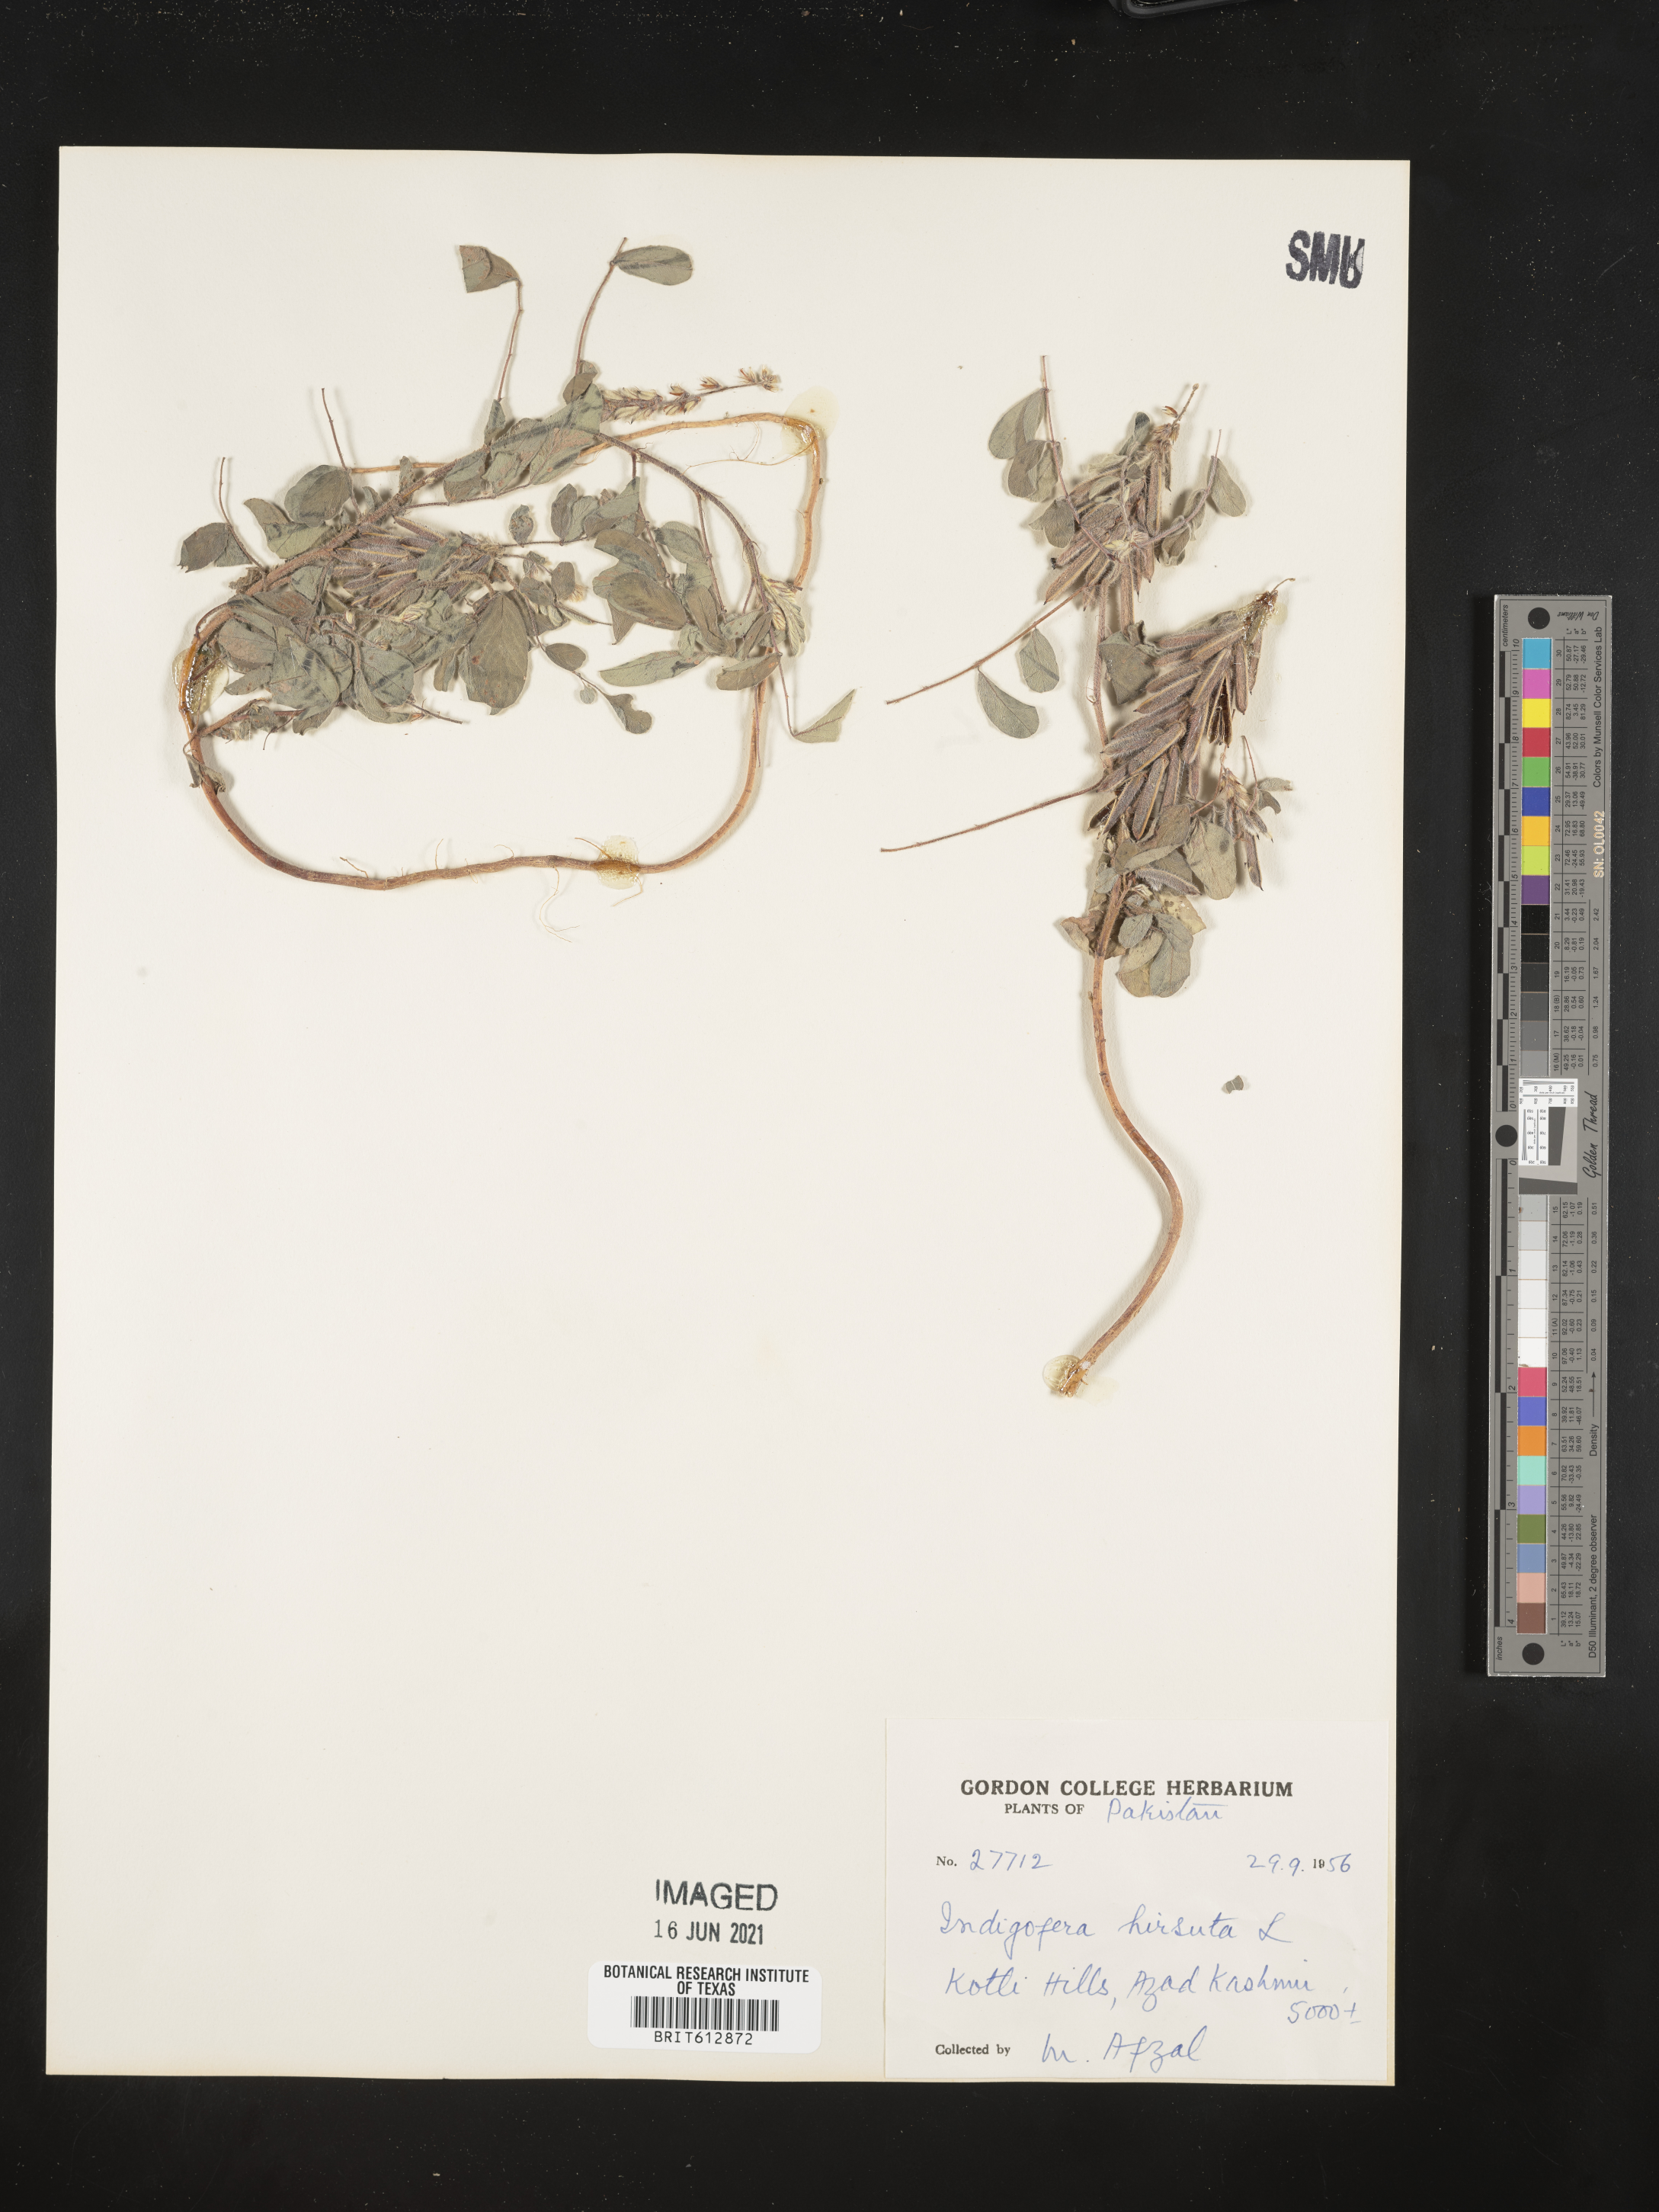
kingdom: Plantae
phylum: Tracheophyta
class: Magnoliopsida
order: Fabales
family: Fabaceae
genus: Indigofera
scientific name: Indigofera hirsuta
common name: Hairy indigo
